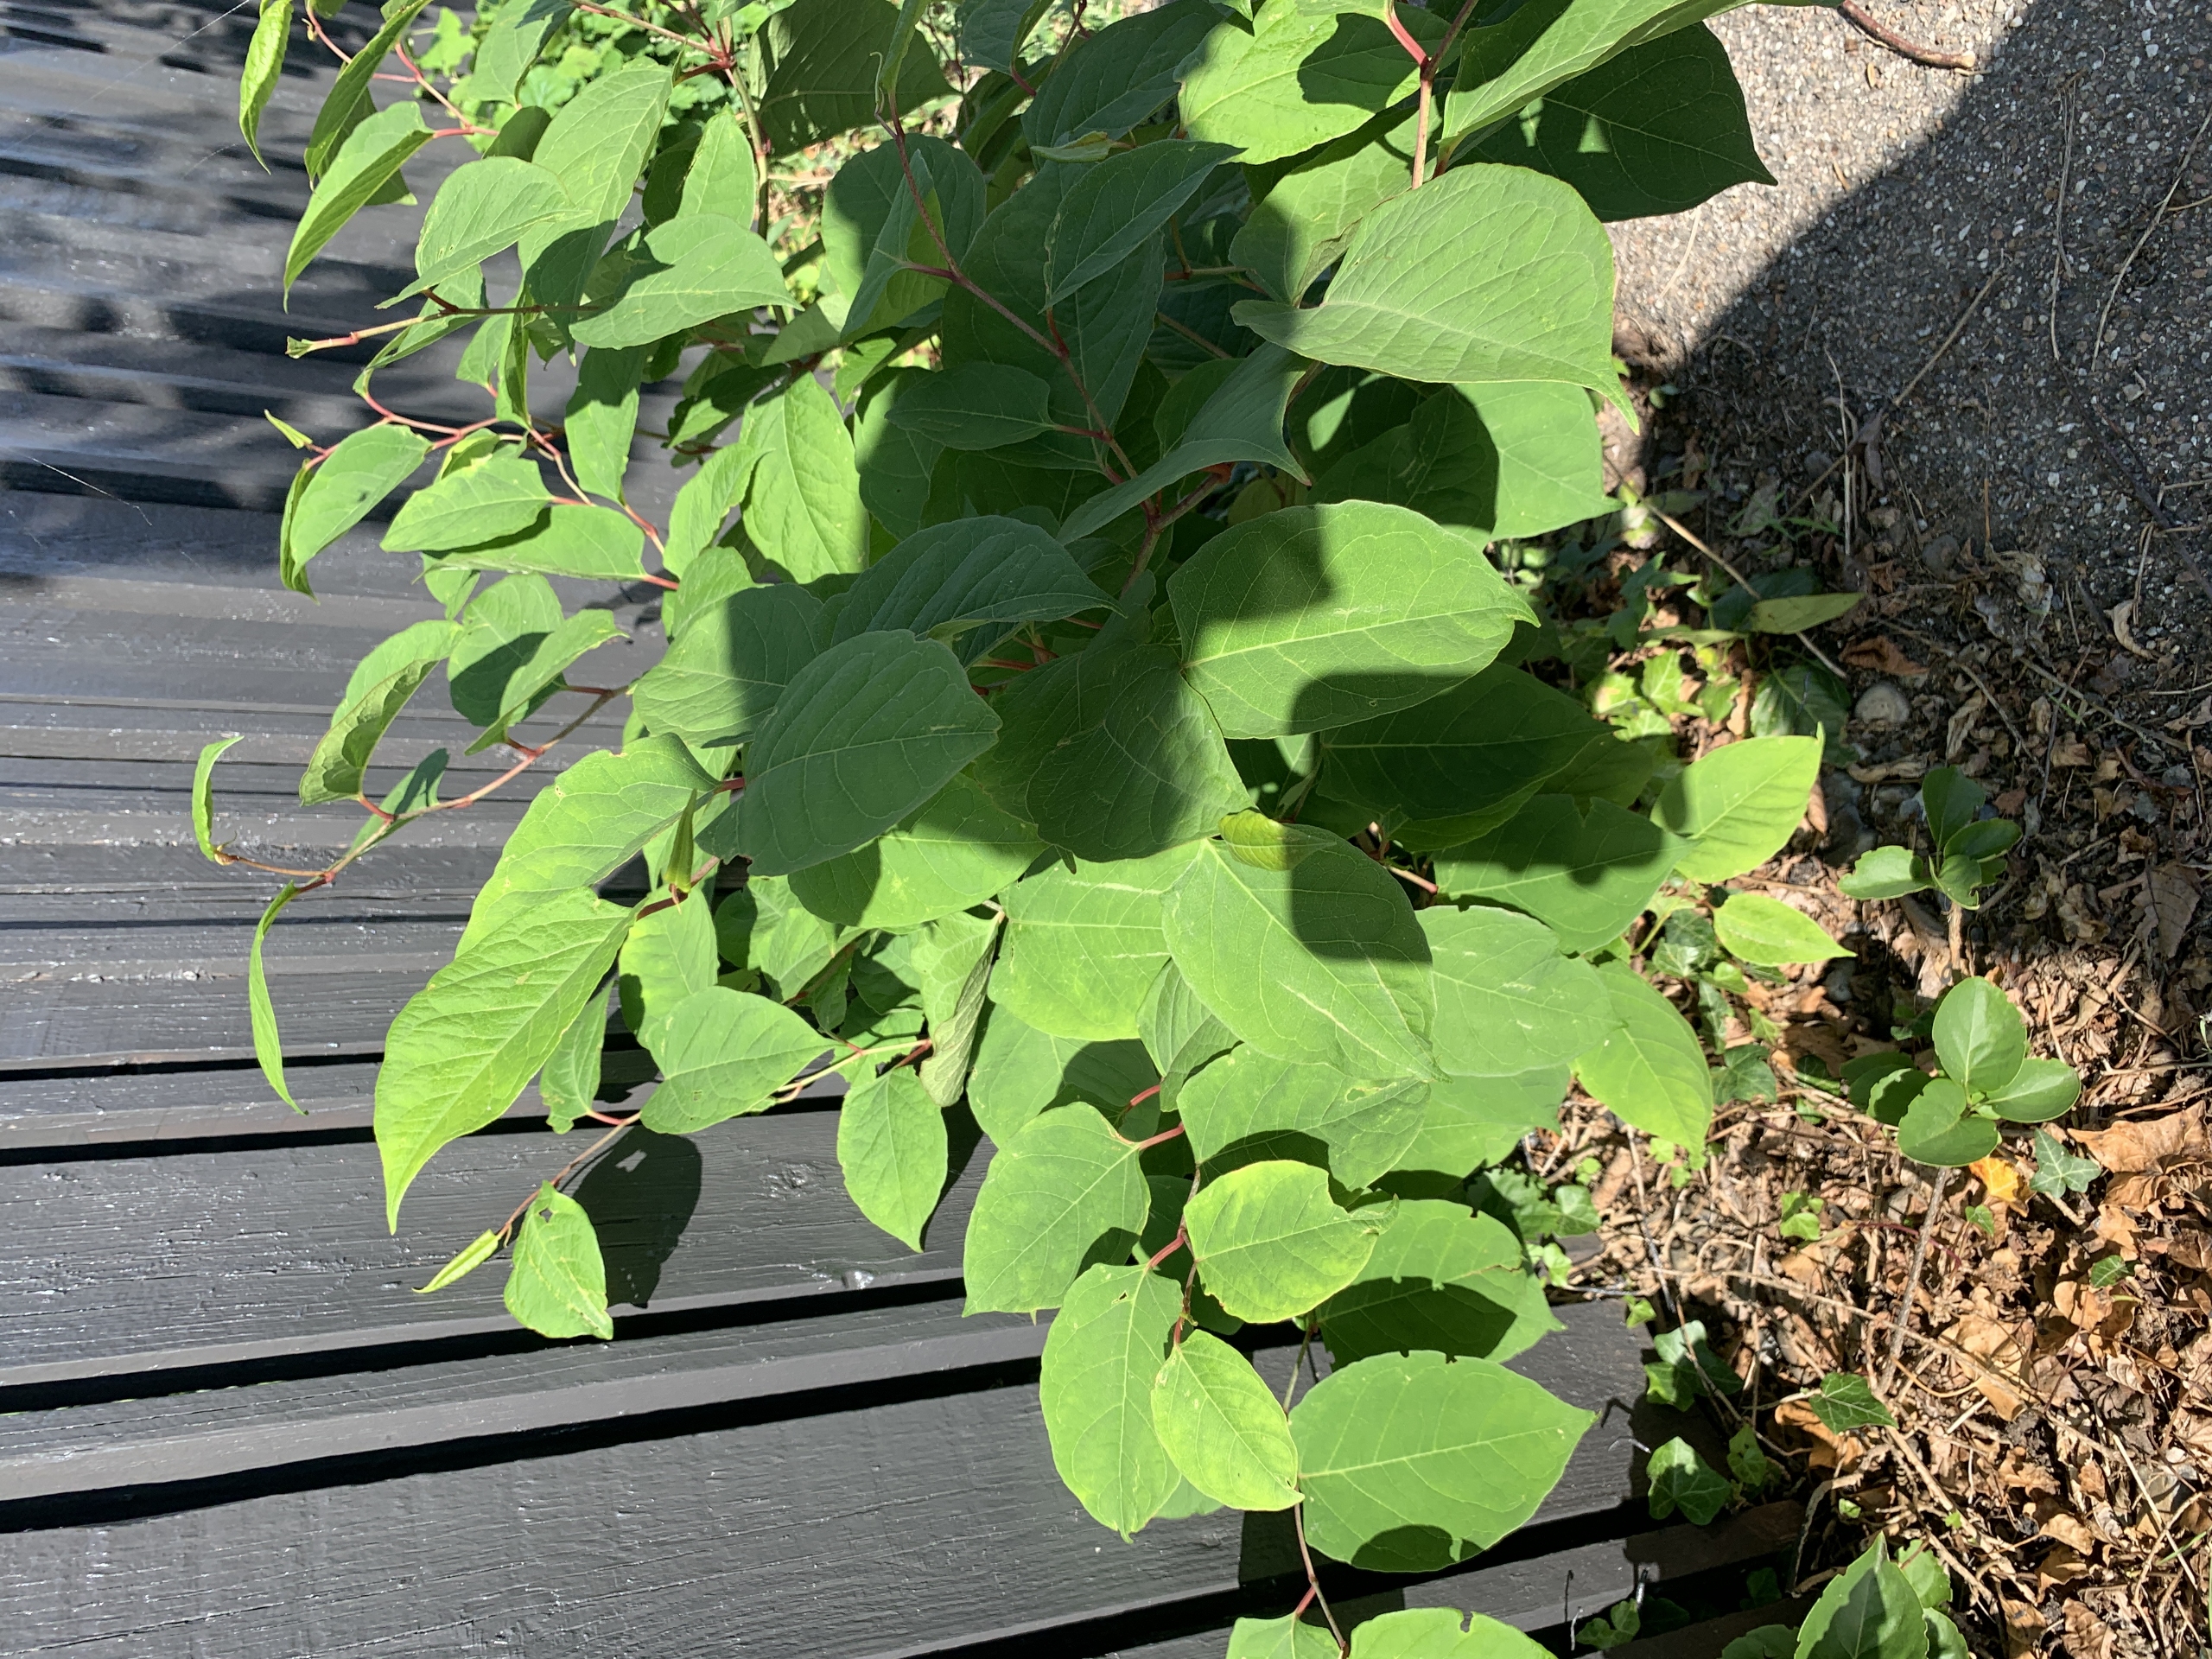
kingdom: Plantae
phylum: Tracheophyta
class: Magnoliopsida
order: Caryophyllales
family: Polygonaceae
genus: Reynoutria
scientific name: Reynoutria japonica
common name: Japan-pileurt
